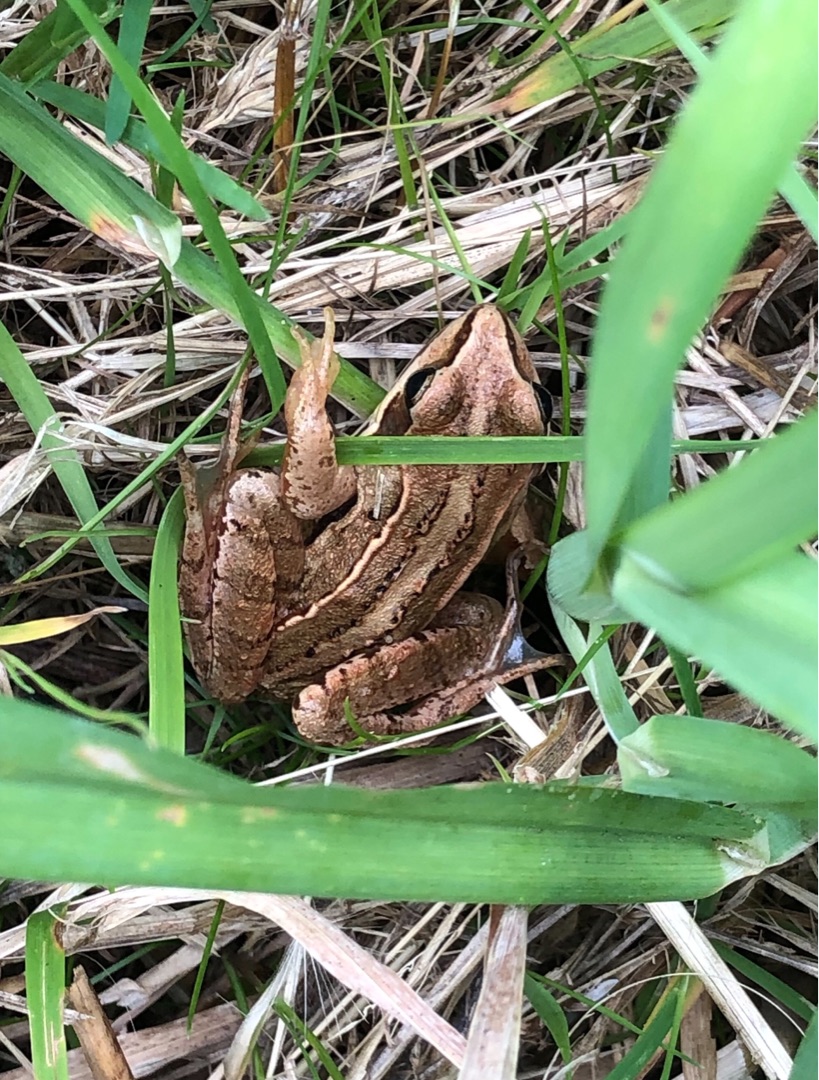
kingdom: Animalia
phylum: Chordata
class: Amphibia
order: Anura
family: Ranidae
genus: Rana
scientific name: Rana arvalis
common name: Spidssnudet frø
